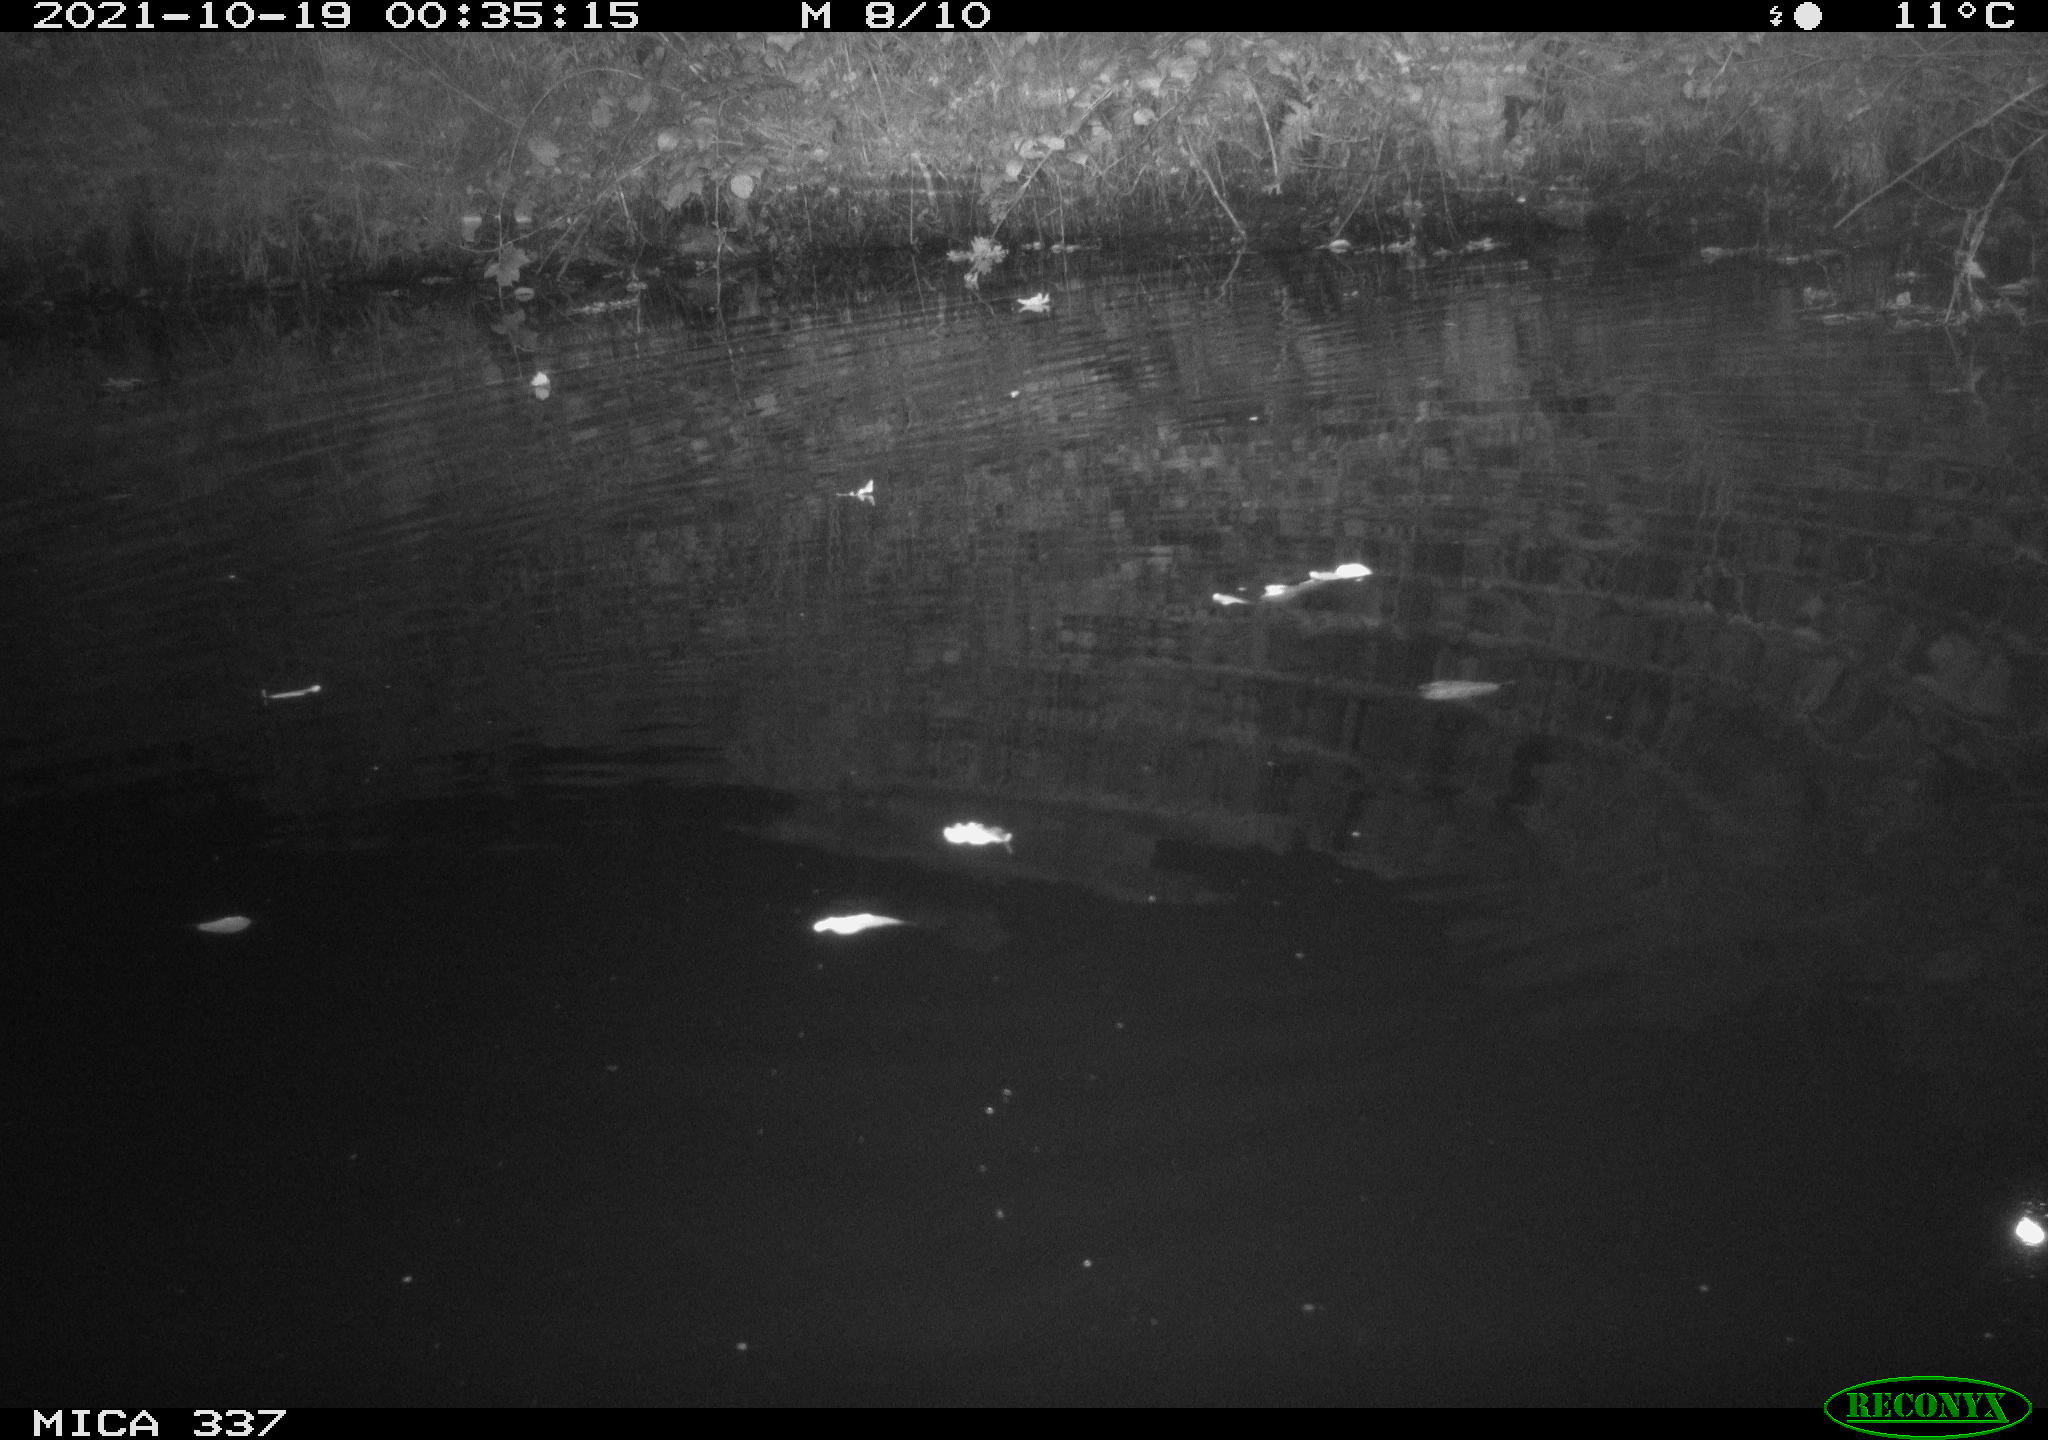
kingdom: Animalia
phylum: Chordata
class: Mammalia
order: Rodentia
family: Muridae
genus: Rattus
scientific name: Rattus norvegicus
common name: Brown rat
